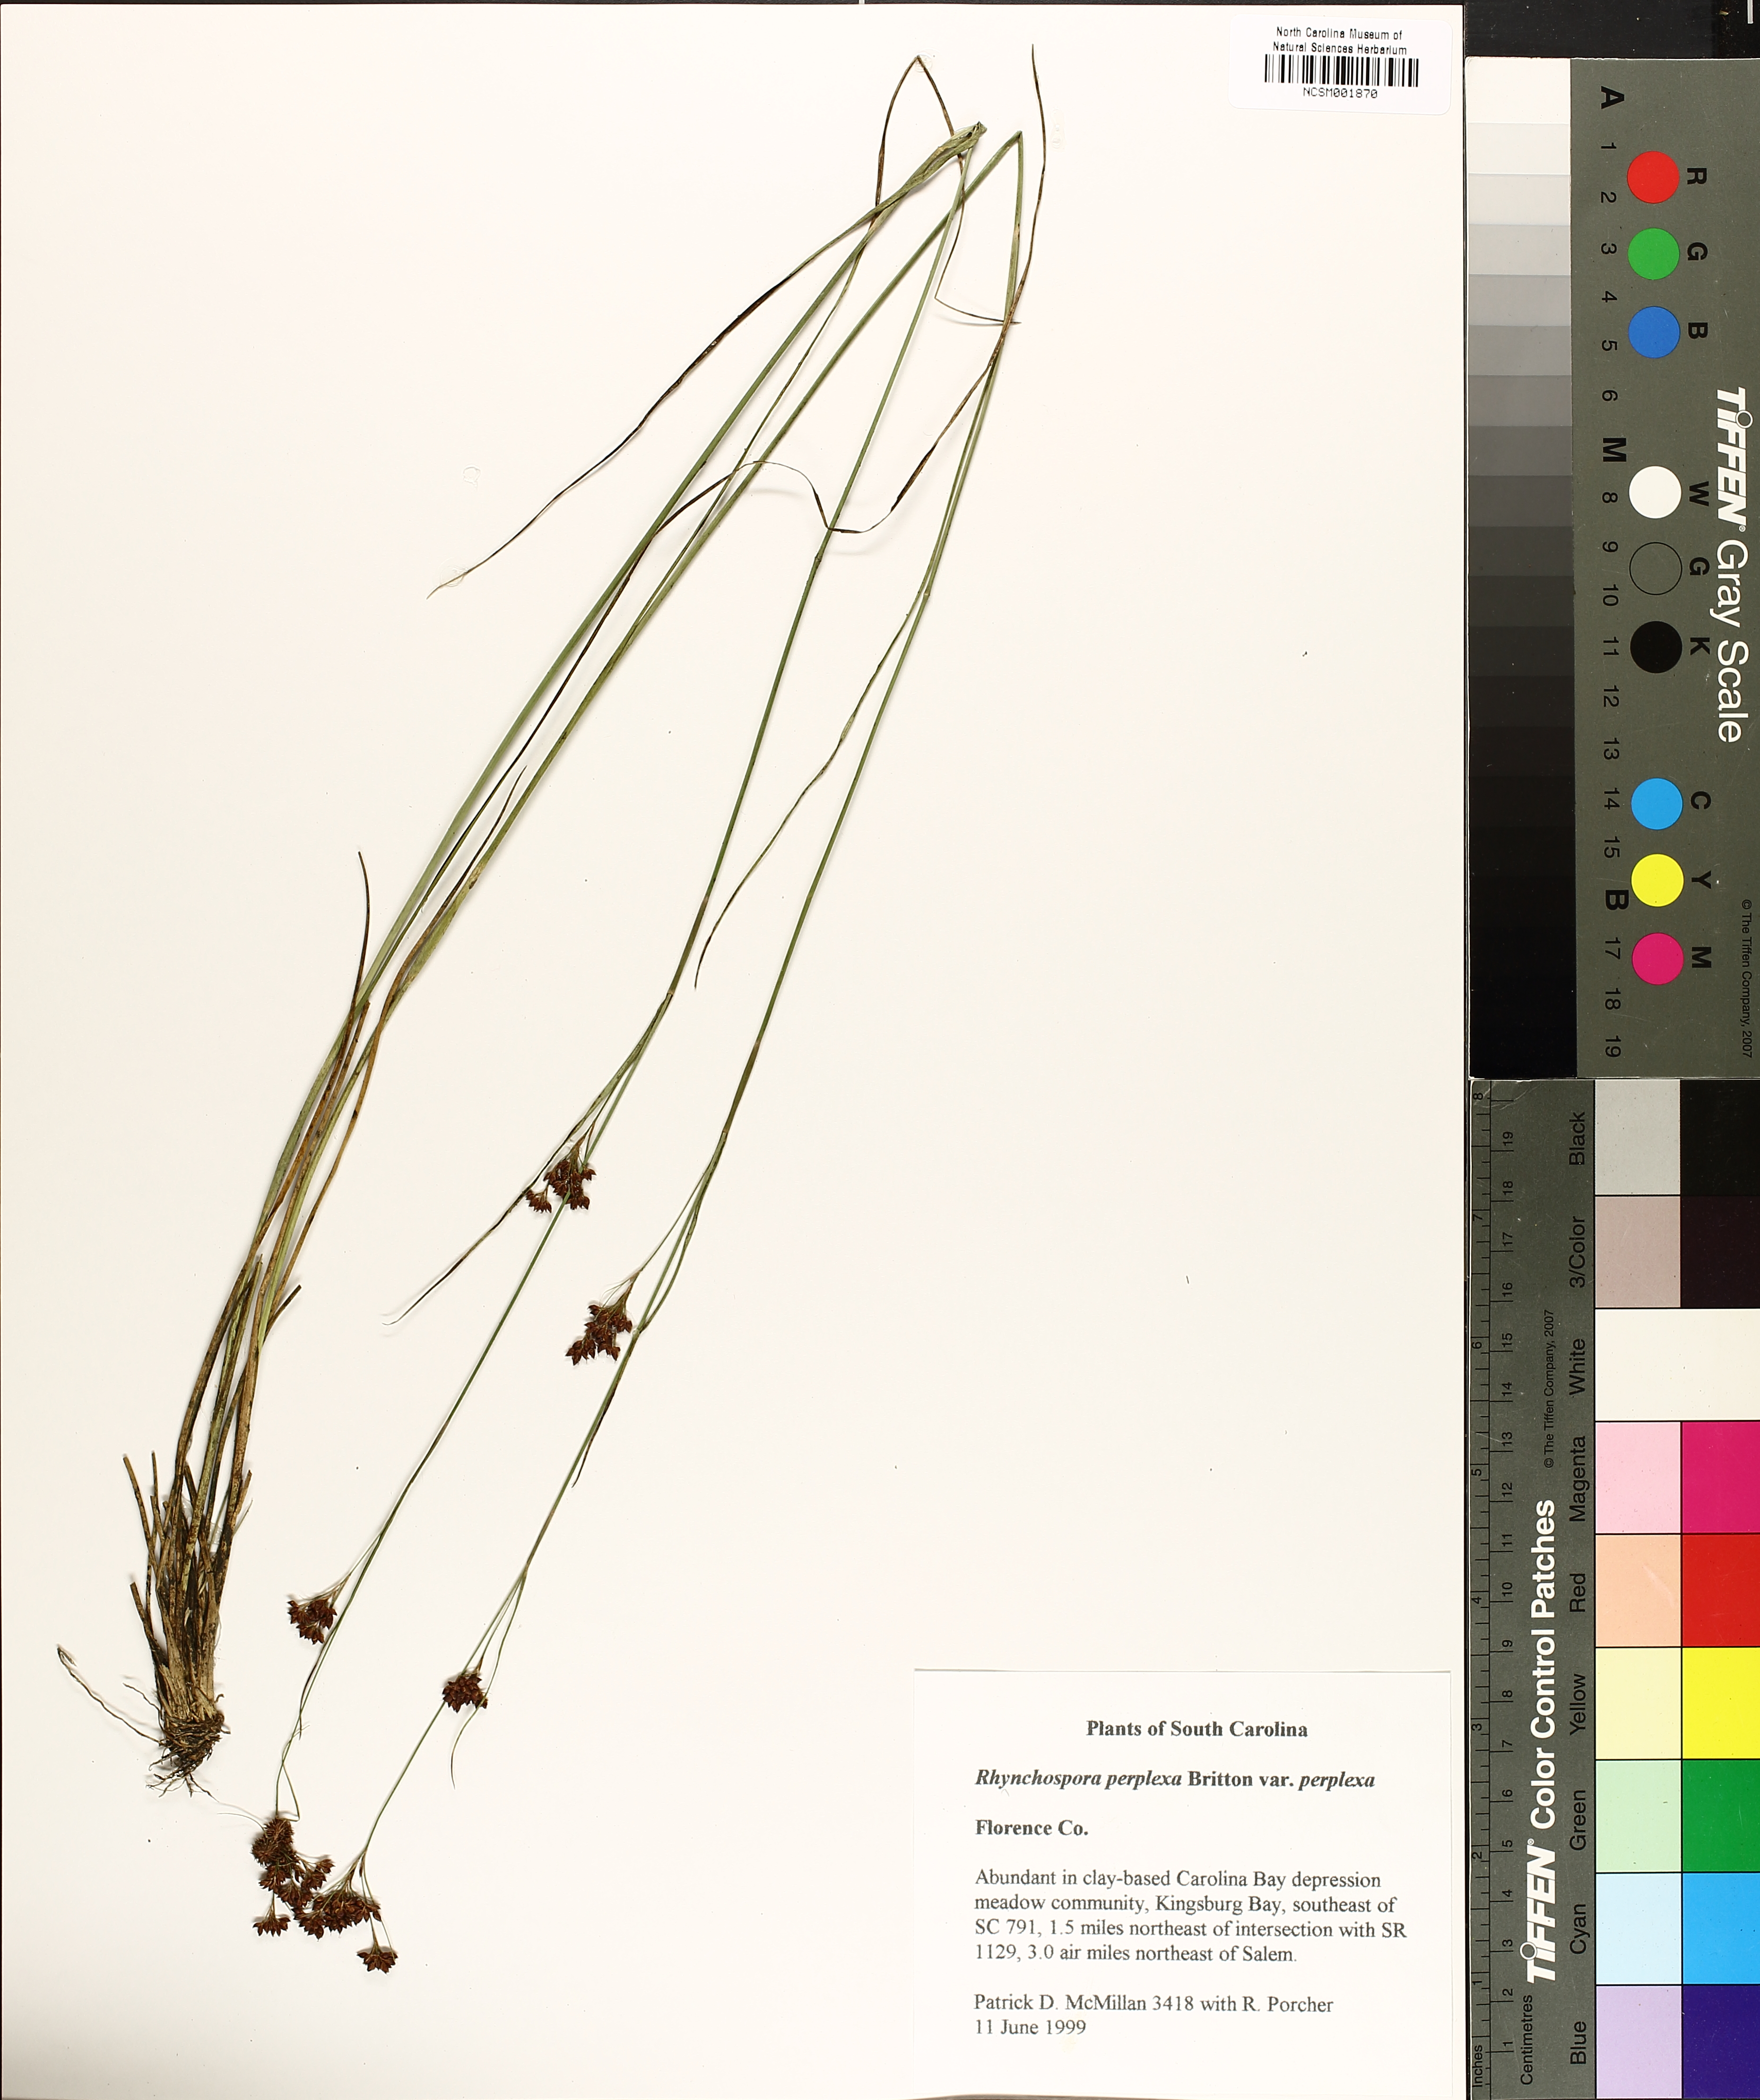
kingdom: Plantae
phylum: Tracheophyta
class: Liliopsida
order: Poales
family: Cyperaceae
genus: Rhynchospora
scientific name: Rhynchospora perplexa
